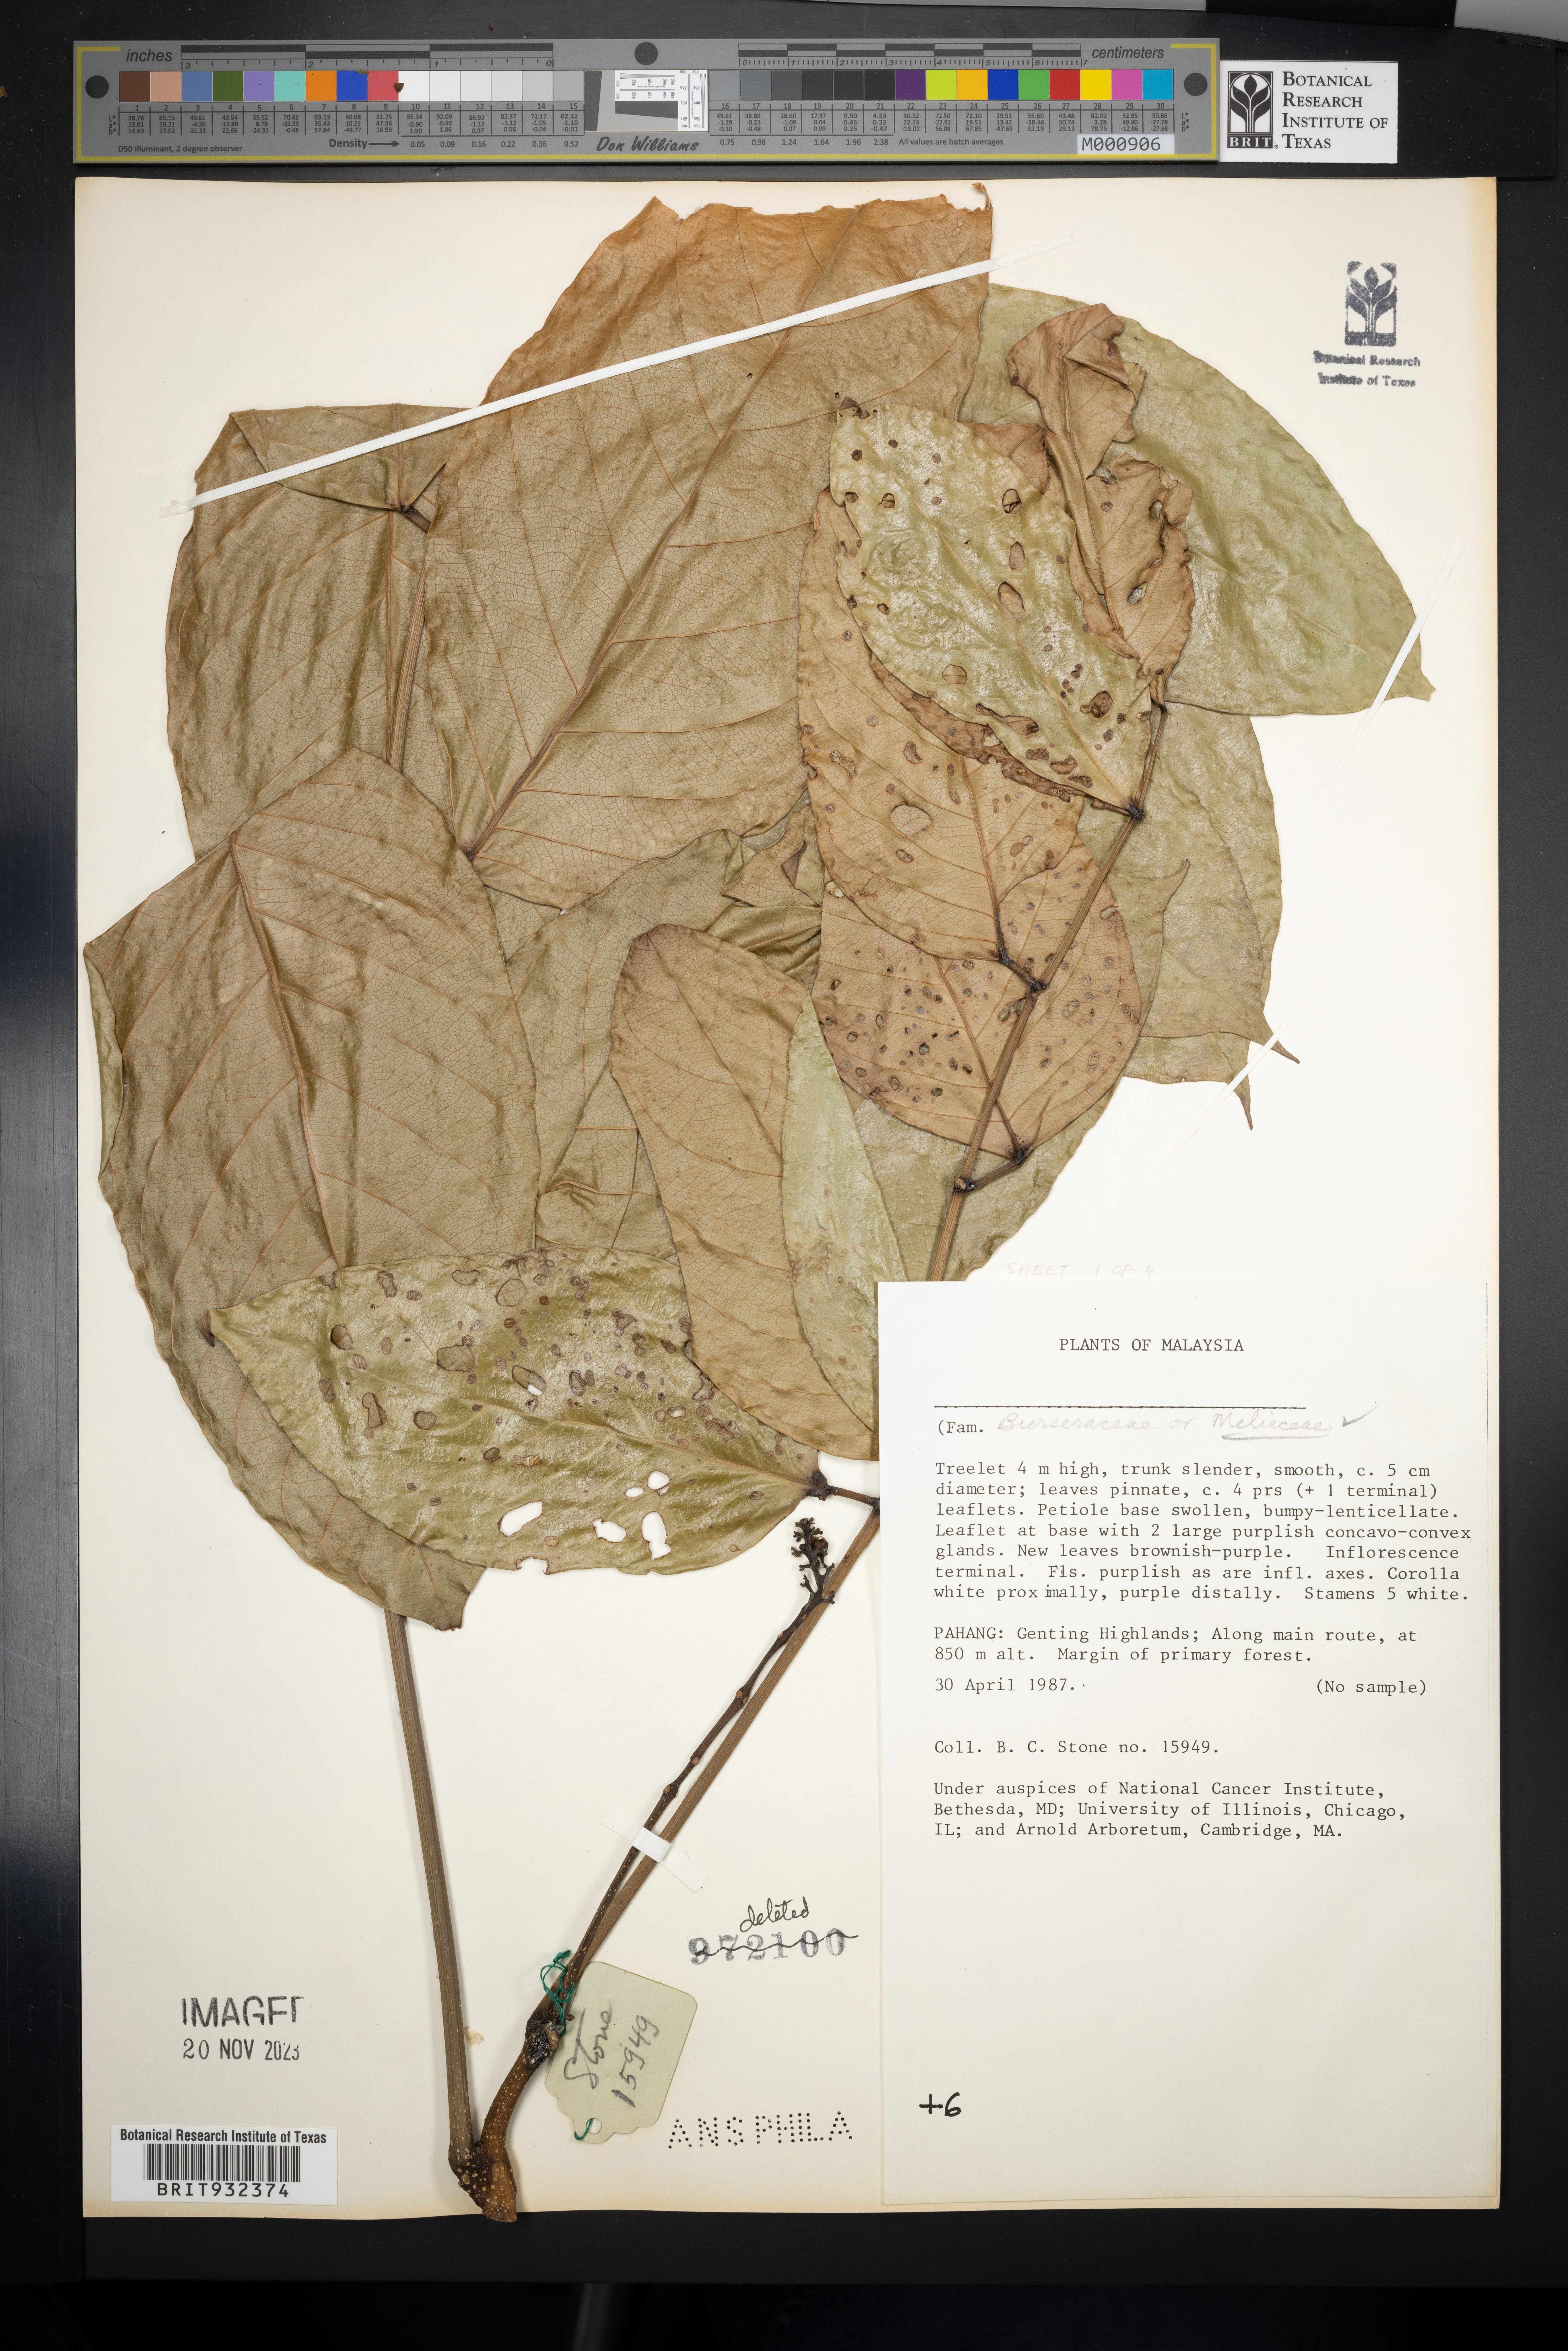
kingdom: Plantae
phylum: Tracheophyta
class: Magnoliopsida
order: Sapindales
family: Meliaceae
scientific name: Meliaceae
